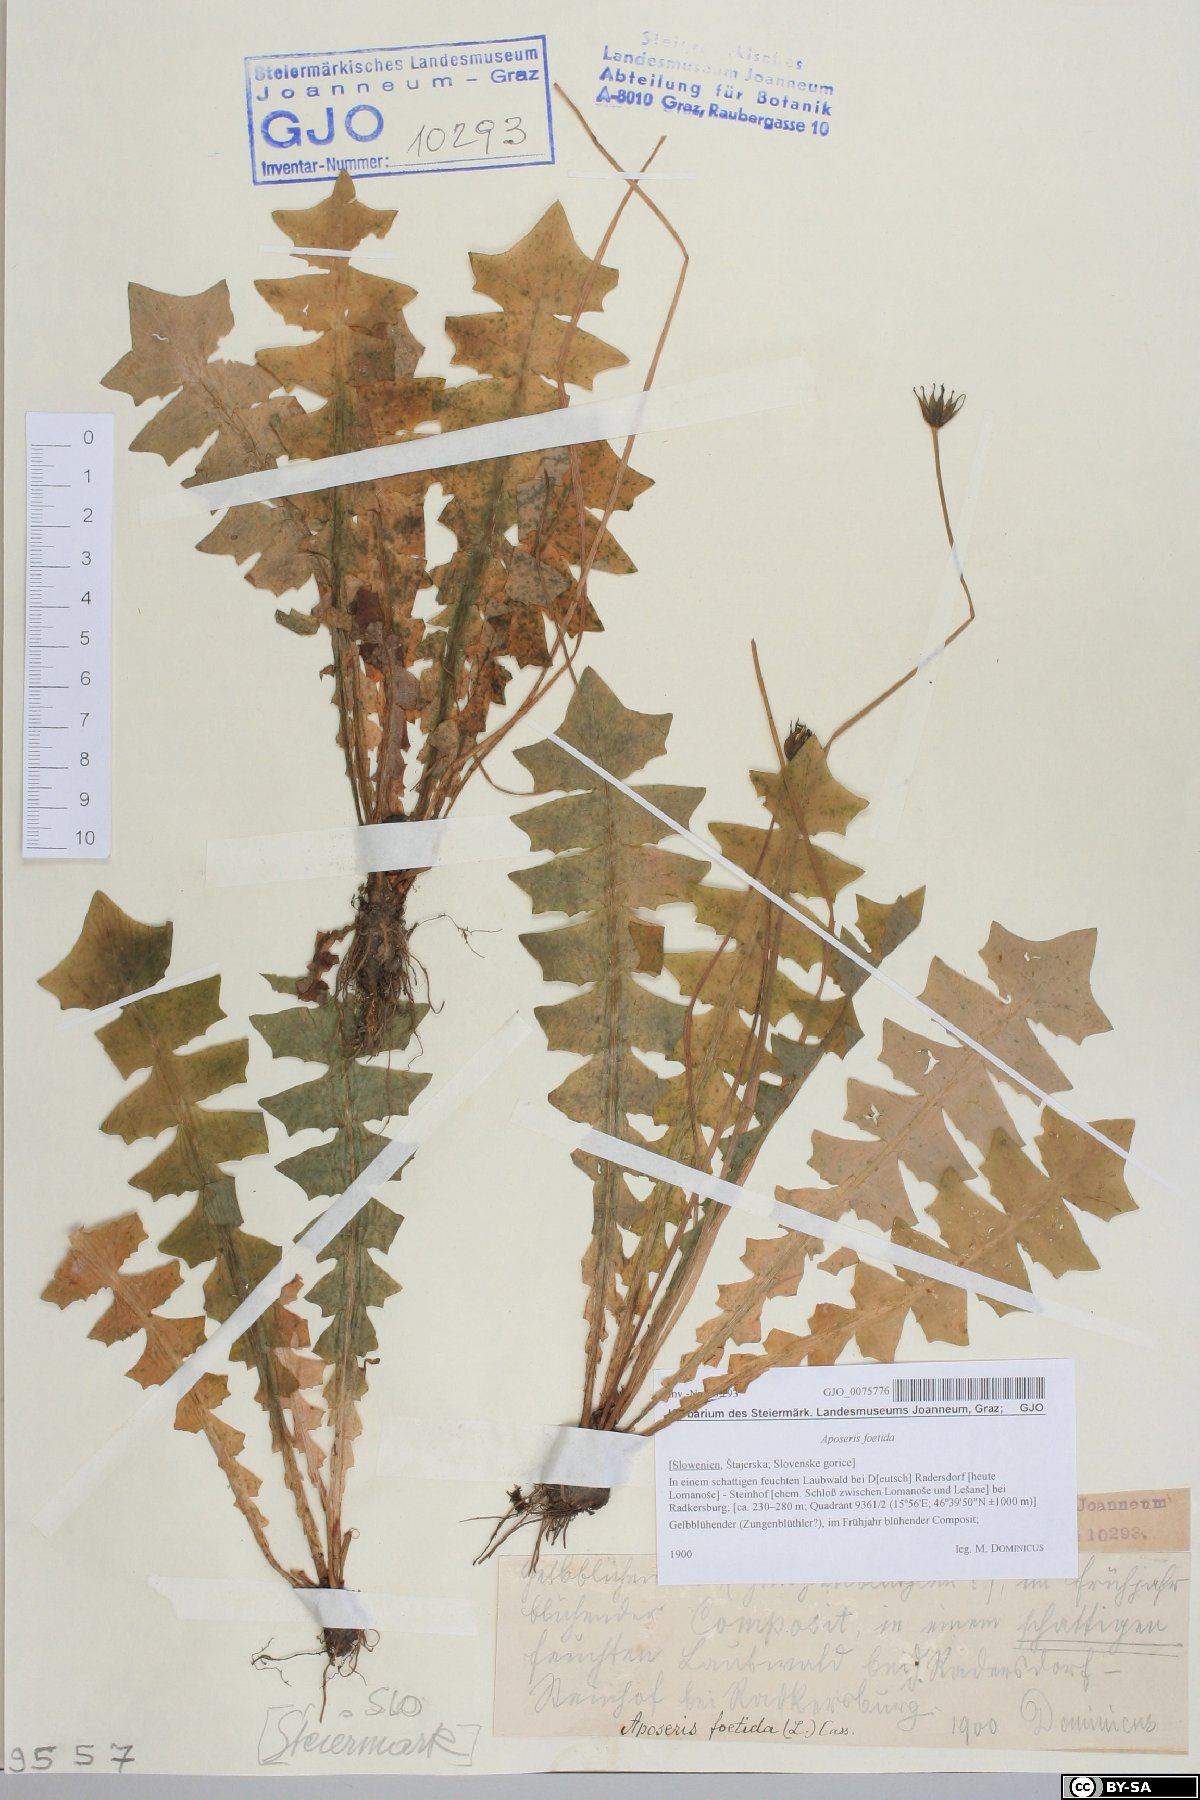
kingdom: Plantae
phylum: Tracheophyta
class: Magnoliopsida
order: Asterales
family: Asteraceae
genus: Aposeris
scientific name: Aposeris foetida
